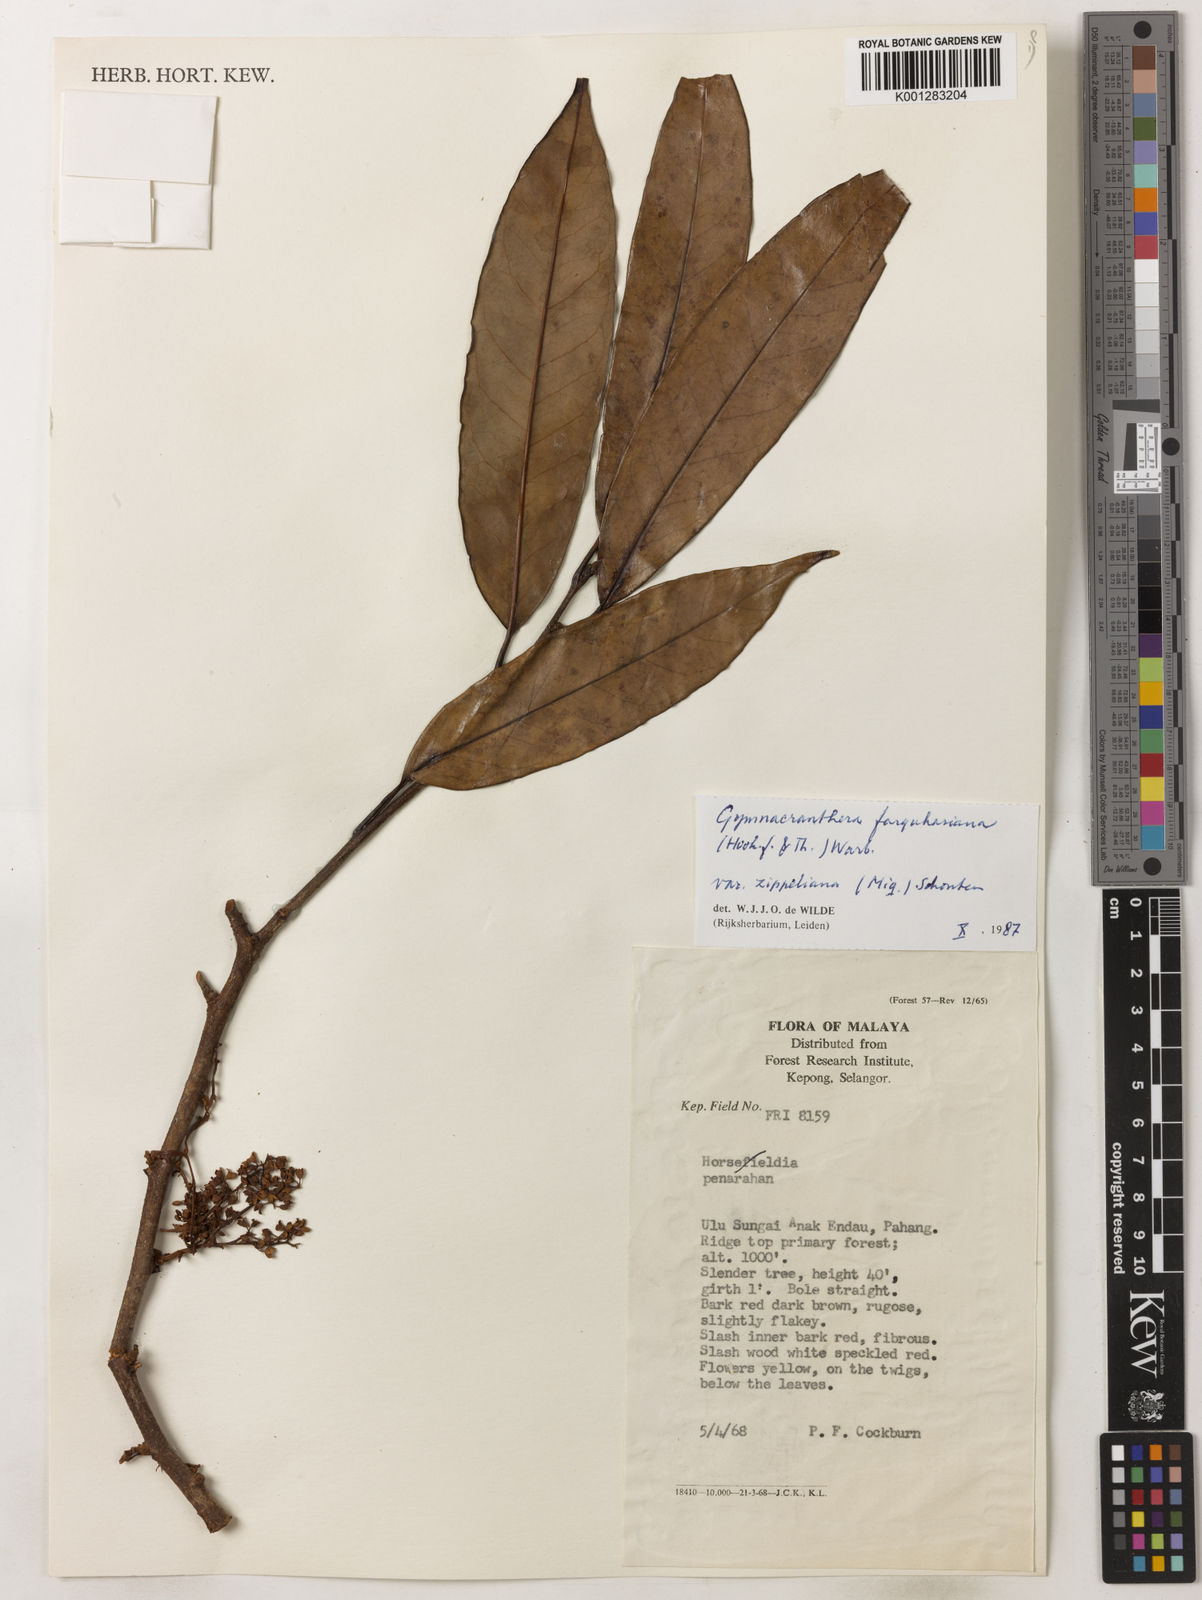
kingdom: Plantae
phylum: Tracheophyta
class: Magnoliopsida
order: Magnoliales
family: Myristicaceae
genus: Gymnacranthera
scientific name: Gymnacranthera farquhariana
